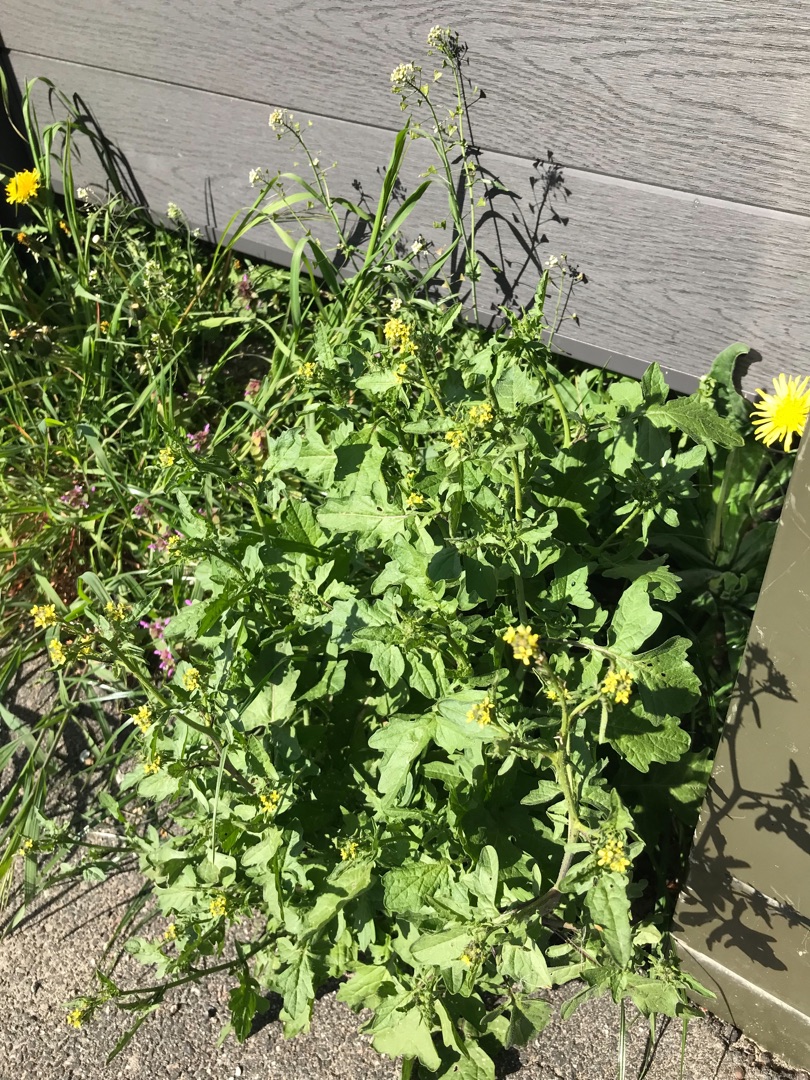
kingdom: Plantae
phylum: Tracheophyta
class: Magnoliopsida
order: Brassicales
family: Brassicaceae
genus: Sisymbrium
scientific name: Sisymbrium officinale
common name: Rank vejsennep
